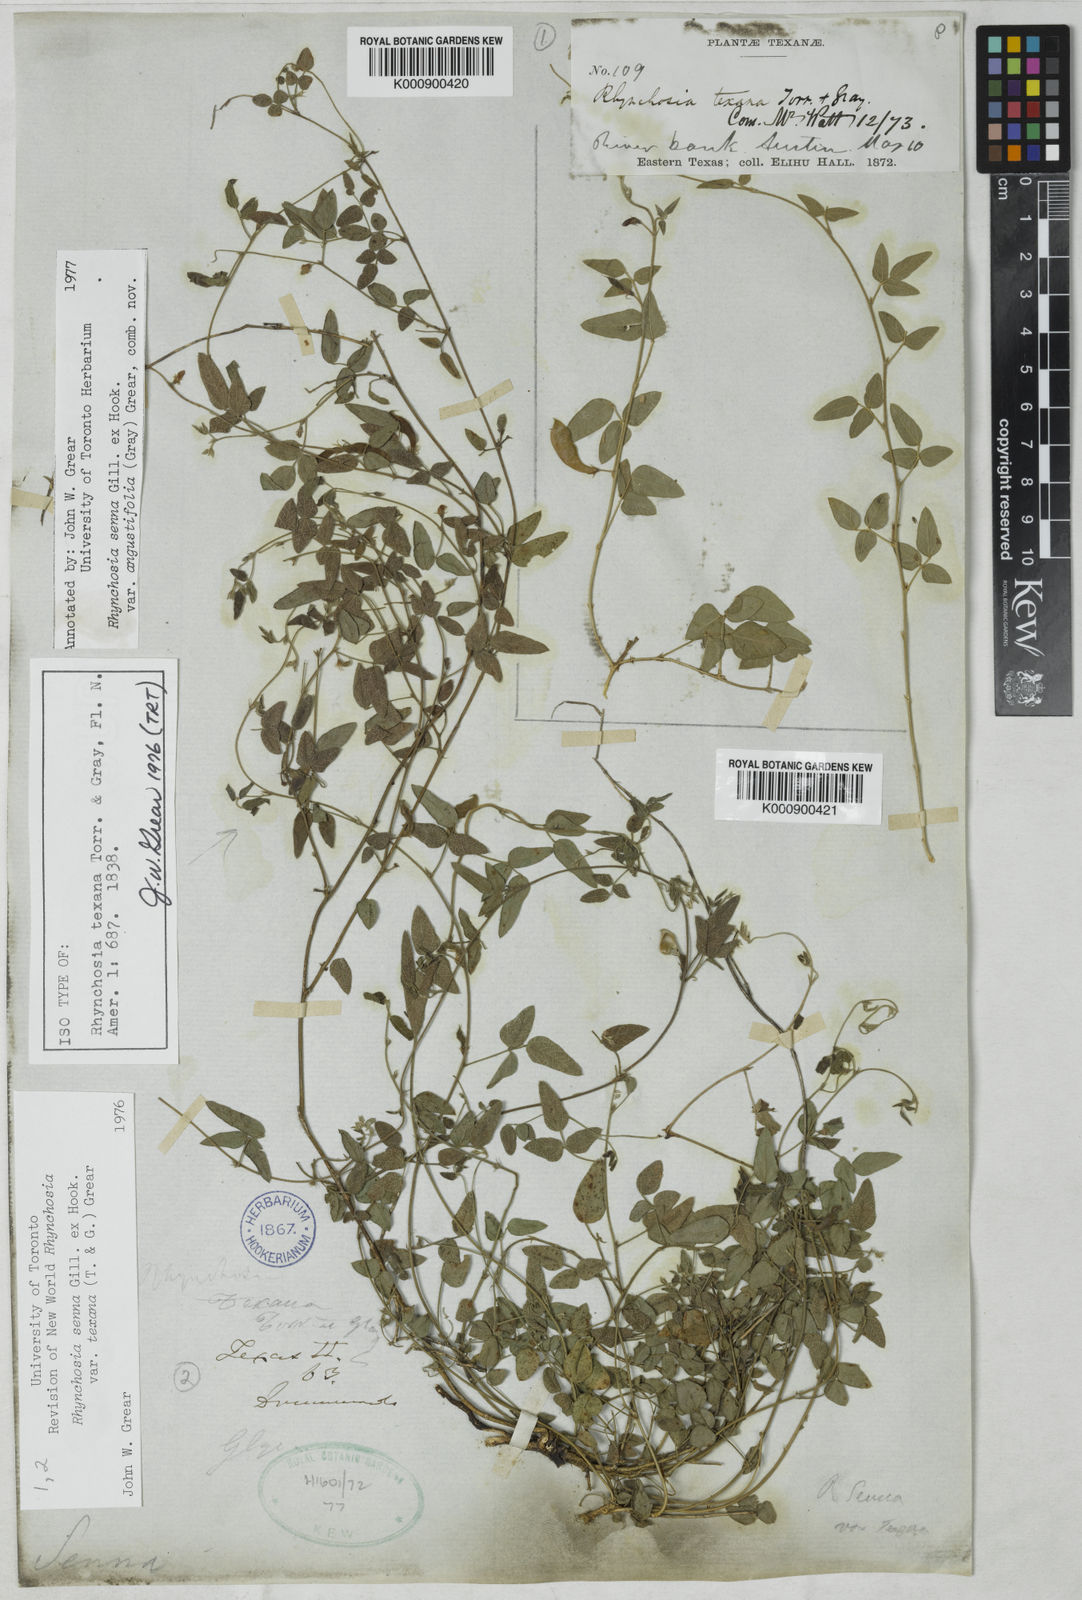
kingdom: Plantae
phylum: Tracheophyta
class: Magnoliopsida
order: Fabales
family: Fabaceae
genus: Rhynchosia
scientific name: Rhynchosia senna
